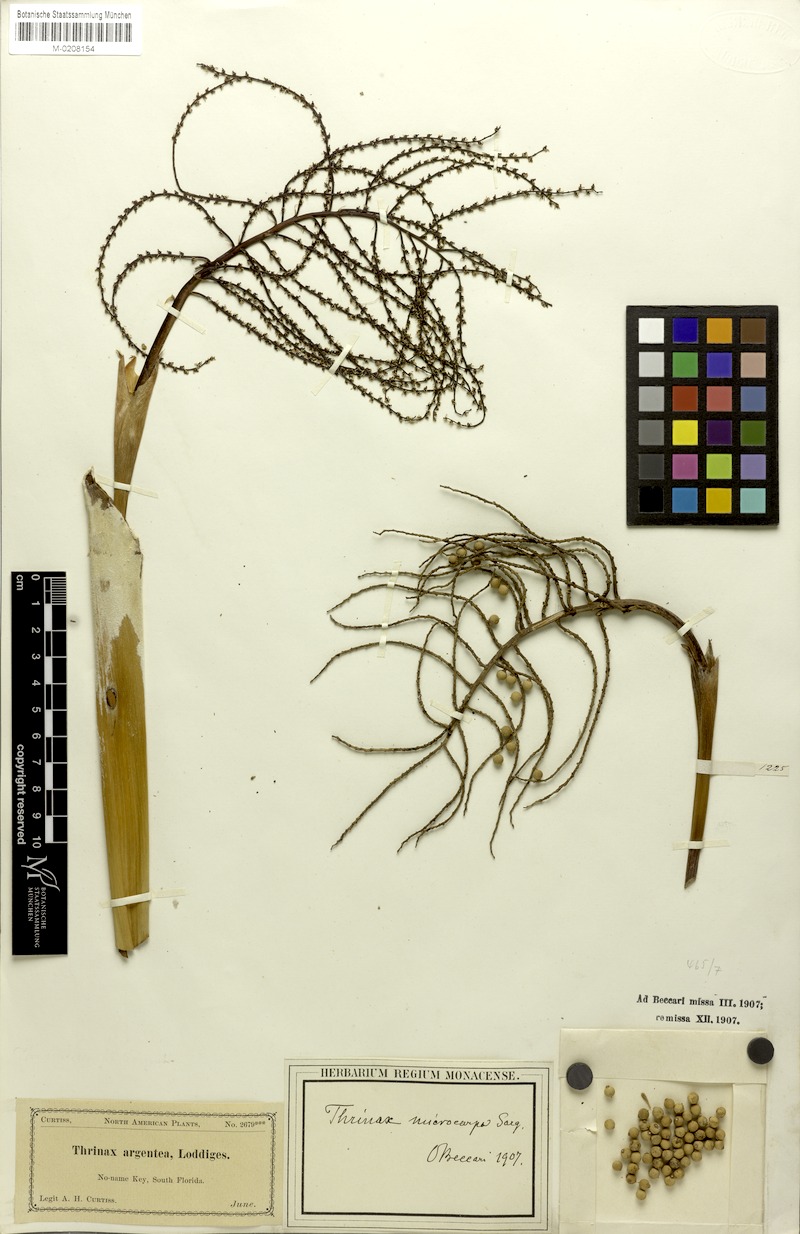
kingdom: Plantae
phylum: Tracheophyta
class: Liliopsida
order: Arecales
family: Arecaceae
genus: Leucothrinax
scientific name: Leucothrinax morrisii
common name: Key palm
